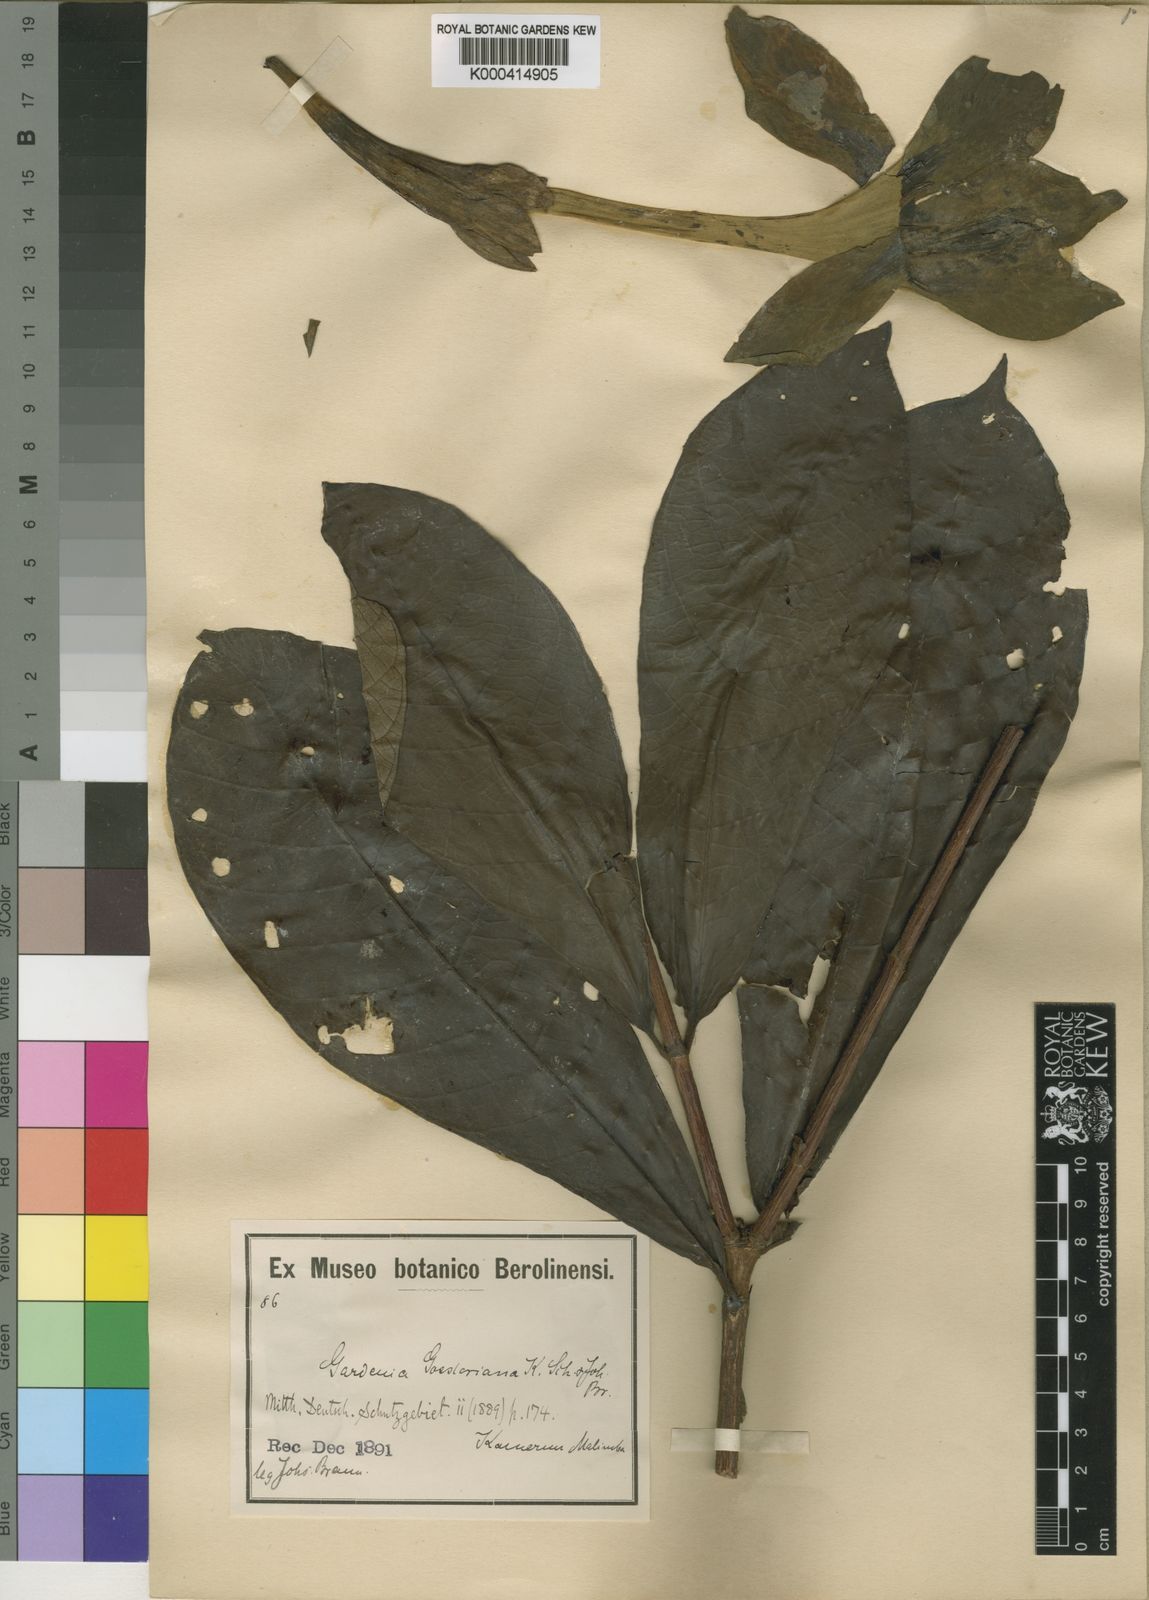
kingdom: Plantae
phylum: Tracheophyta
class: Magnoliopsida
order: Gentianales
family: Rubiaceae
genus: Adenorandia
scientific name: Adenorandia kalbreyeri
